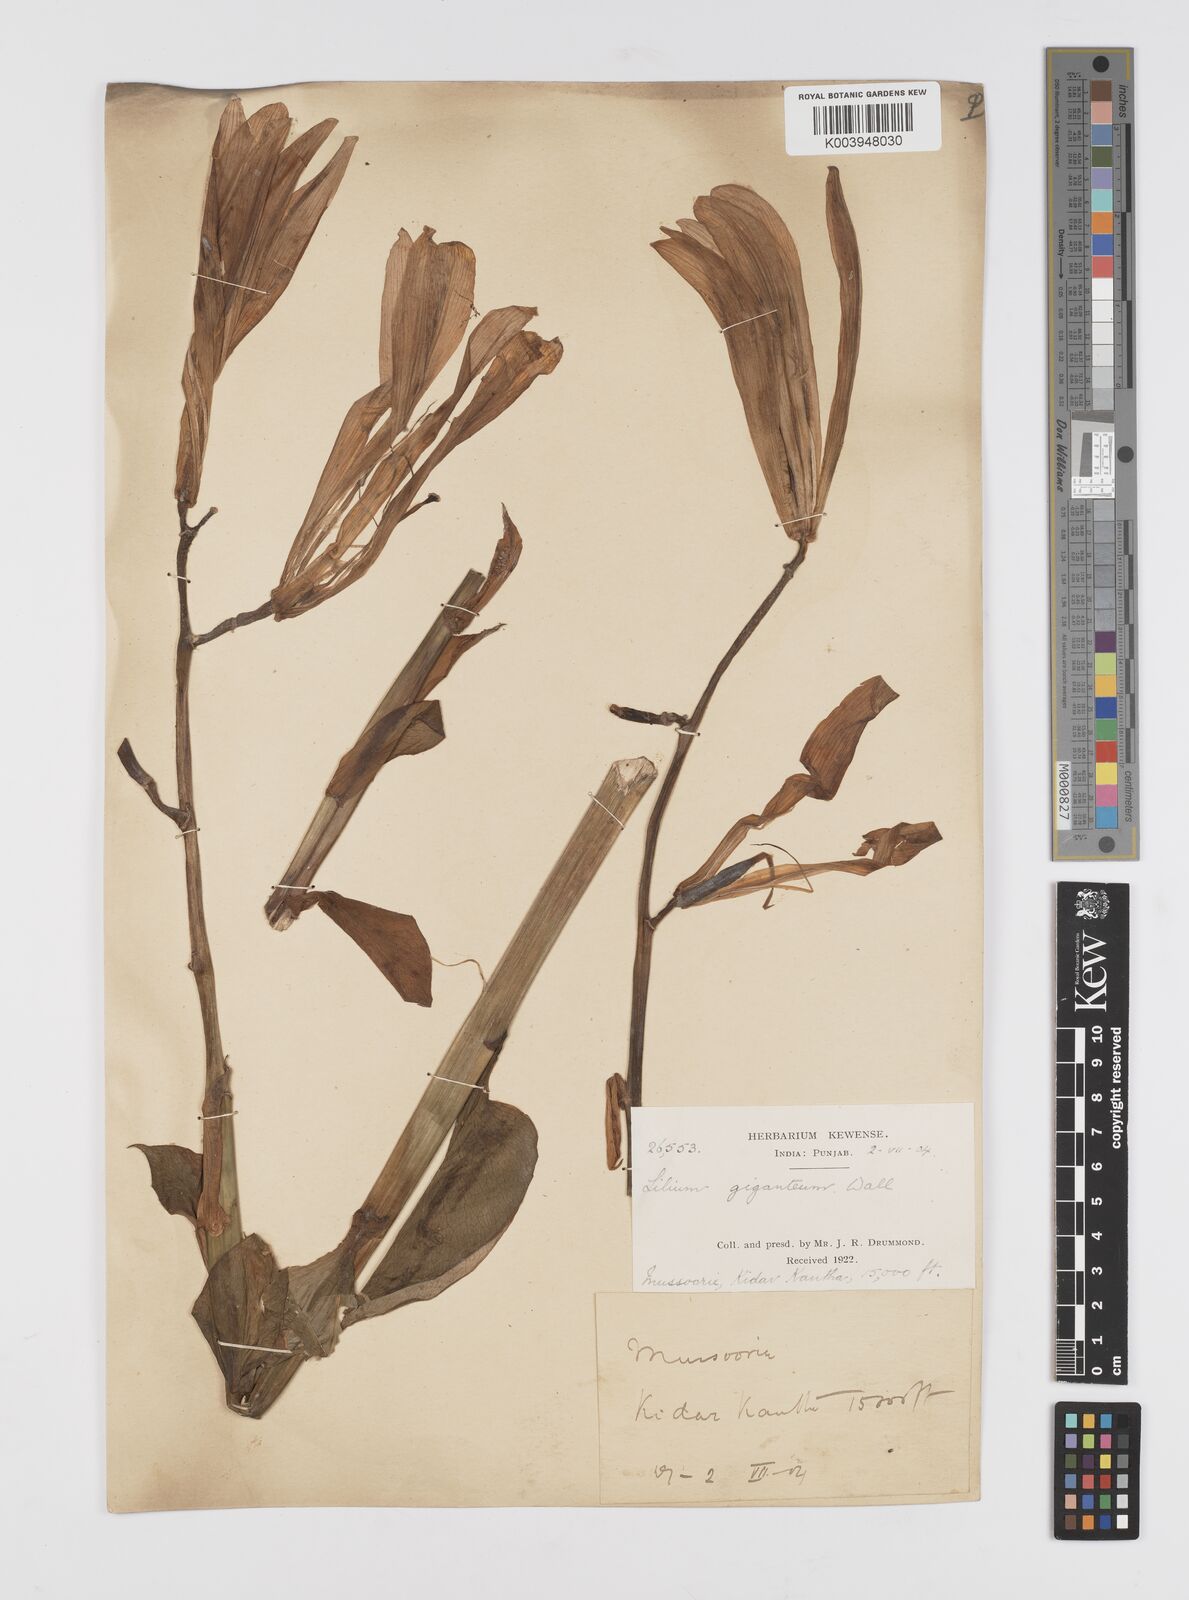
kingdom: Plantae
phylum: Tracheophyta
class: Liliopsida
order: Liliales
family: Liliaceae
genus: Cardiocrinum
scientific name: Cardiocrinum giganteum
